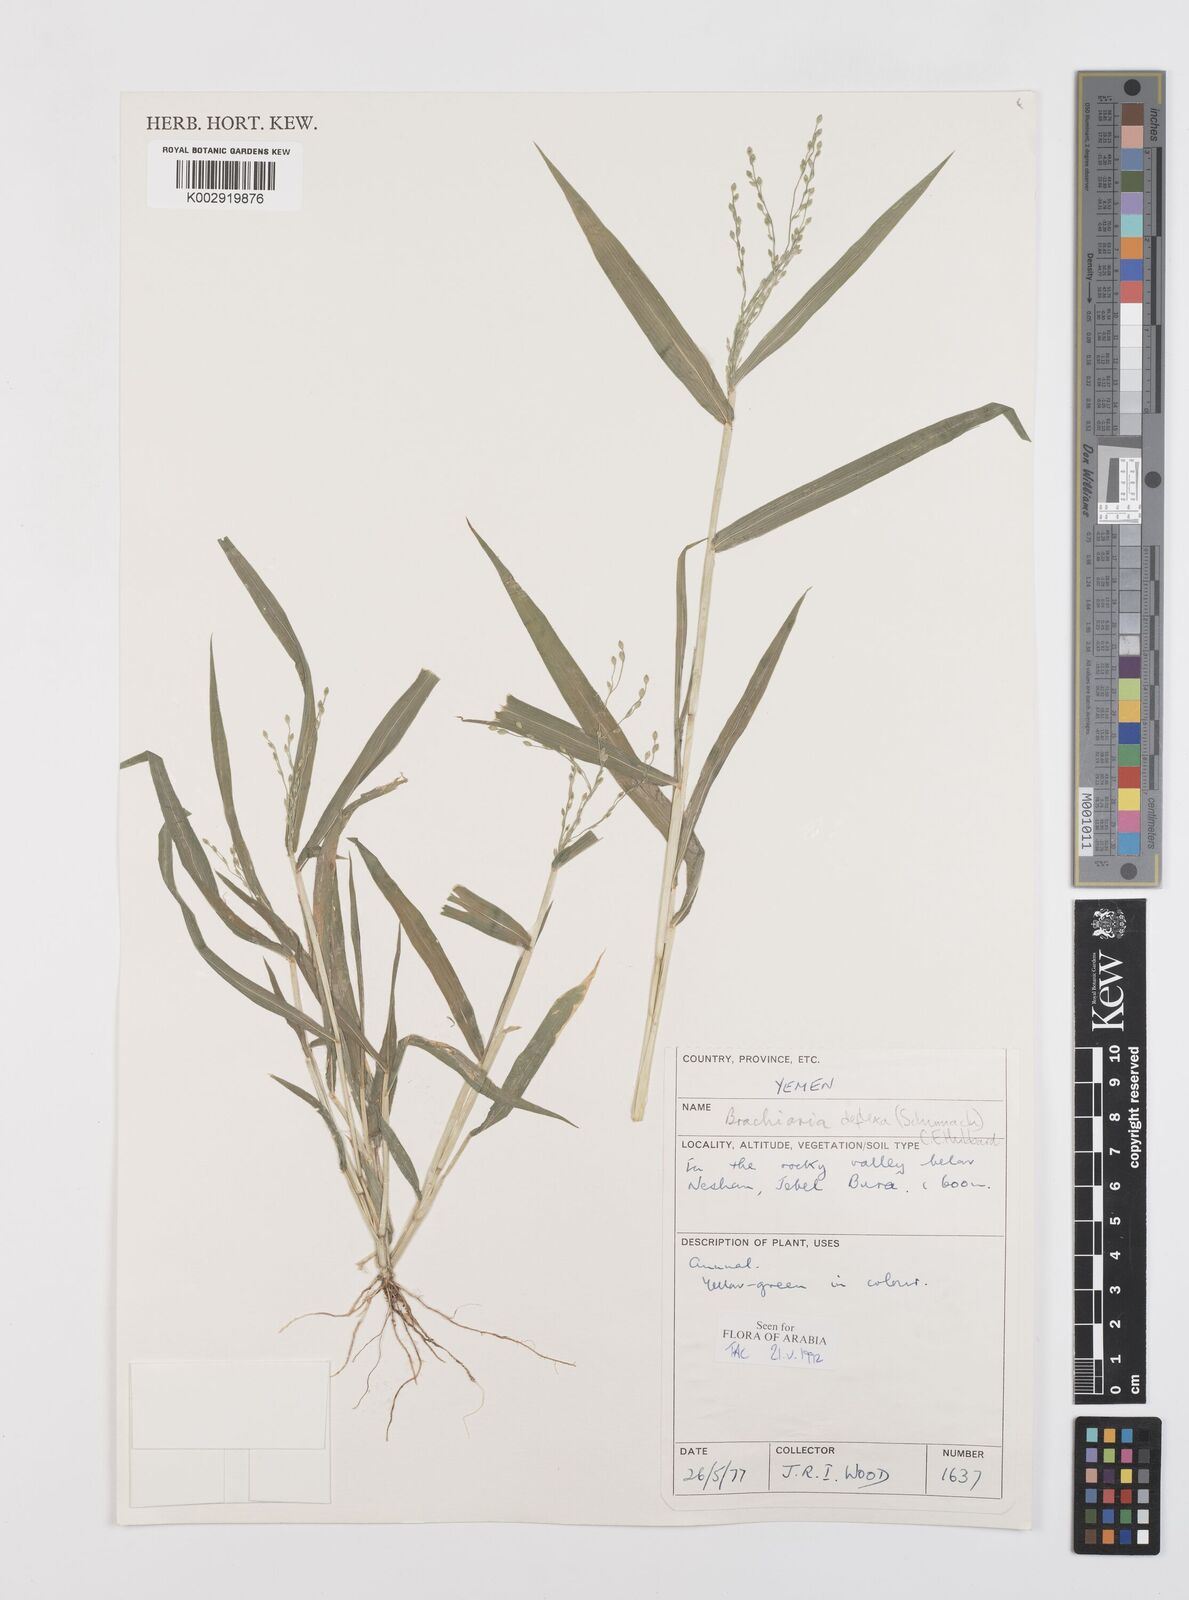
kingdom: Plantae
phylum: Tracheophyta
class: Liliopsida
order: Poales
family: Poaceae
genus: Urochloa
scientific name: Urochloa deflexa
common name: Guinea millet
